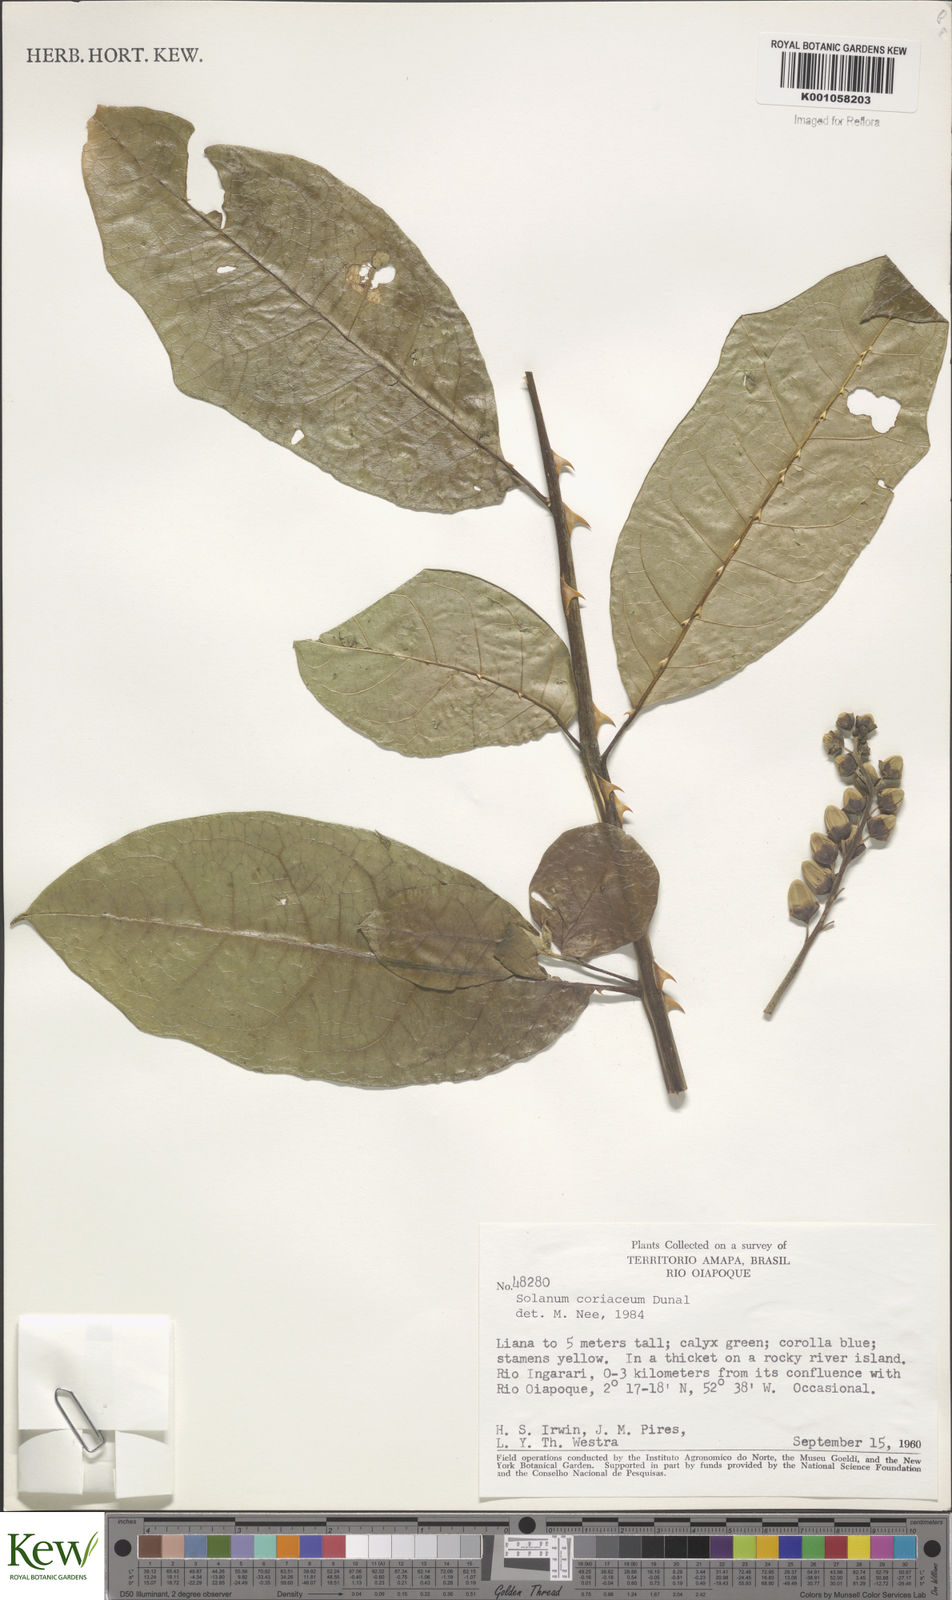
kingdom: Plantae
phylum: Tracheophyta
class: Magnoliopsida
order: Solanales
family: Solanaceae
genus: Solanum
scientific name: Solanum coriaceum
